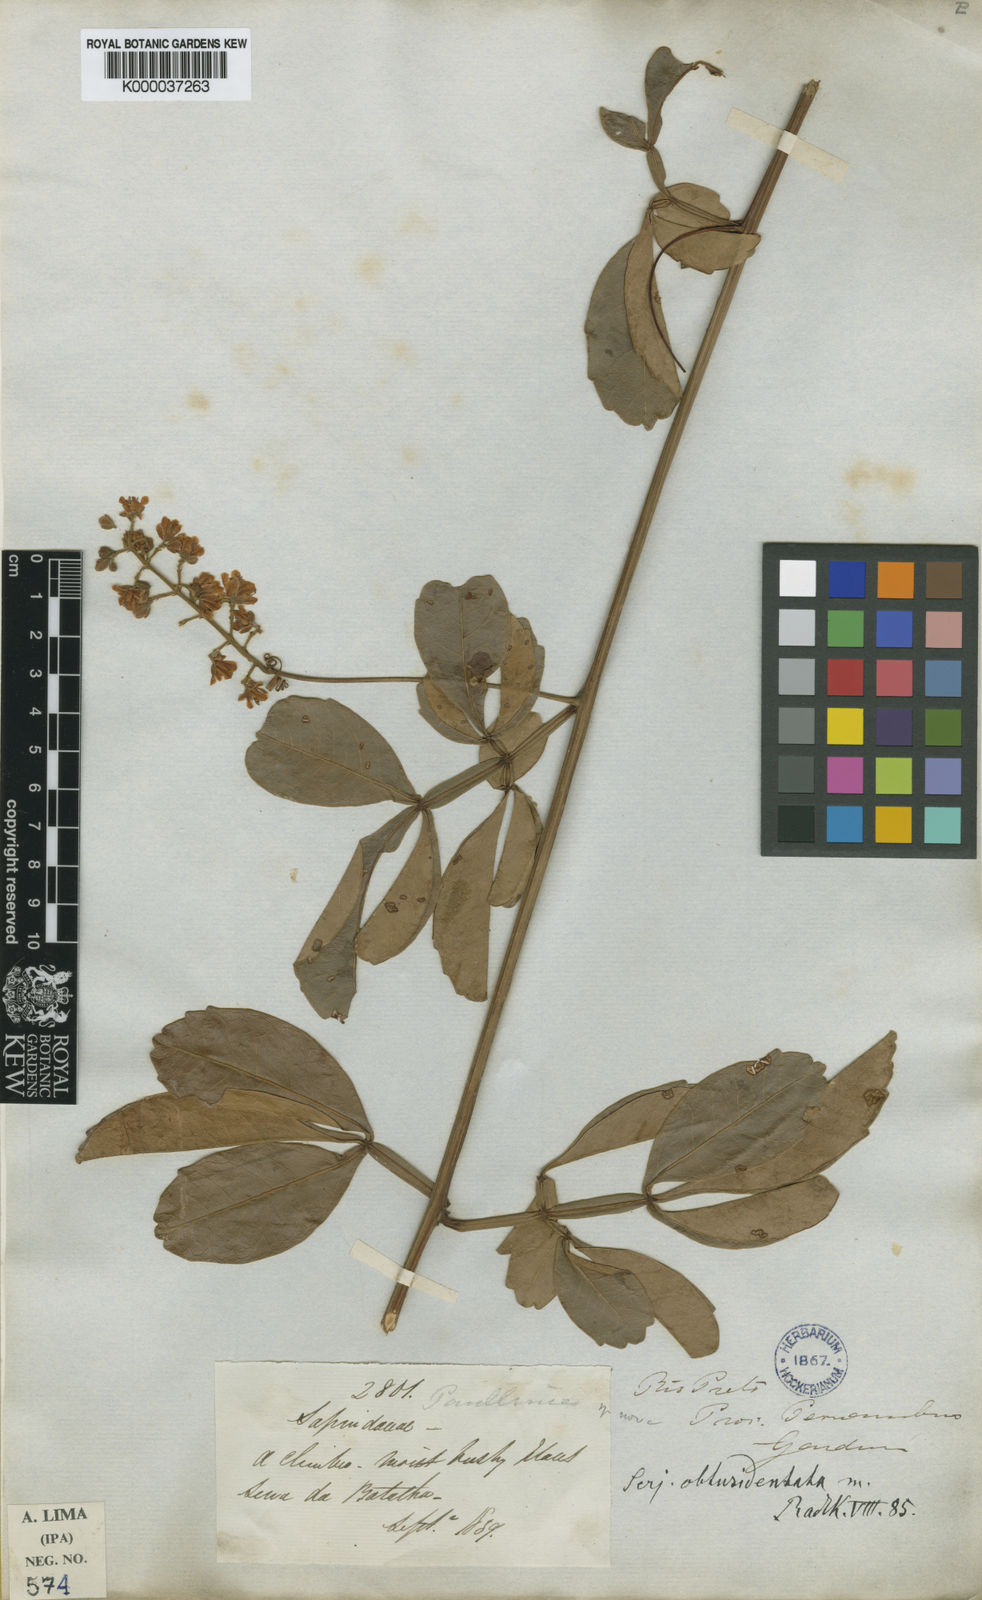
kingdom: Plantae
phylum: Tracheophyta
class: Magnoliopsida
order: Sapindales
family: Sapindaceae
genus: Serjania
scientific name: Serjania obtusidentata
